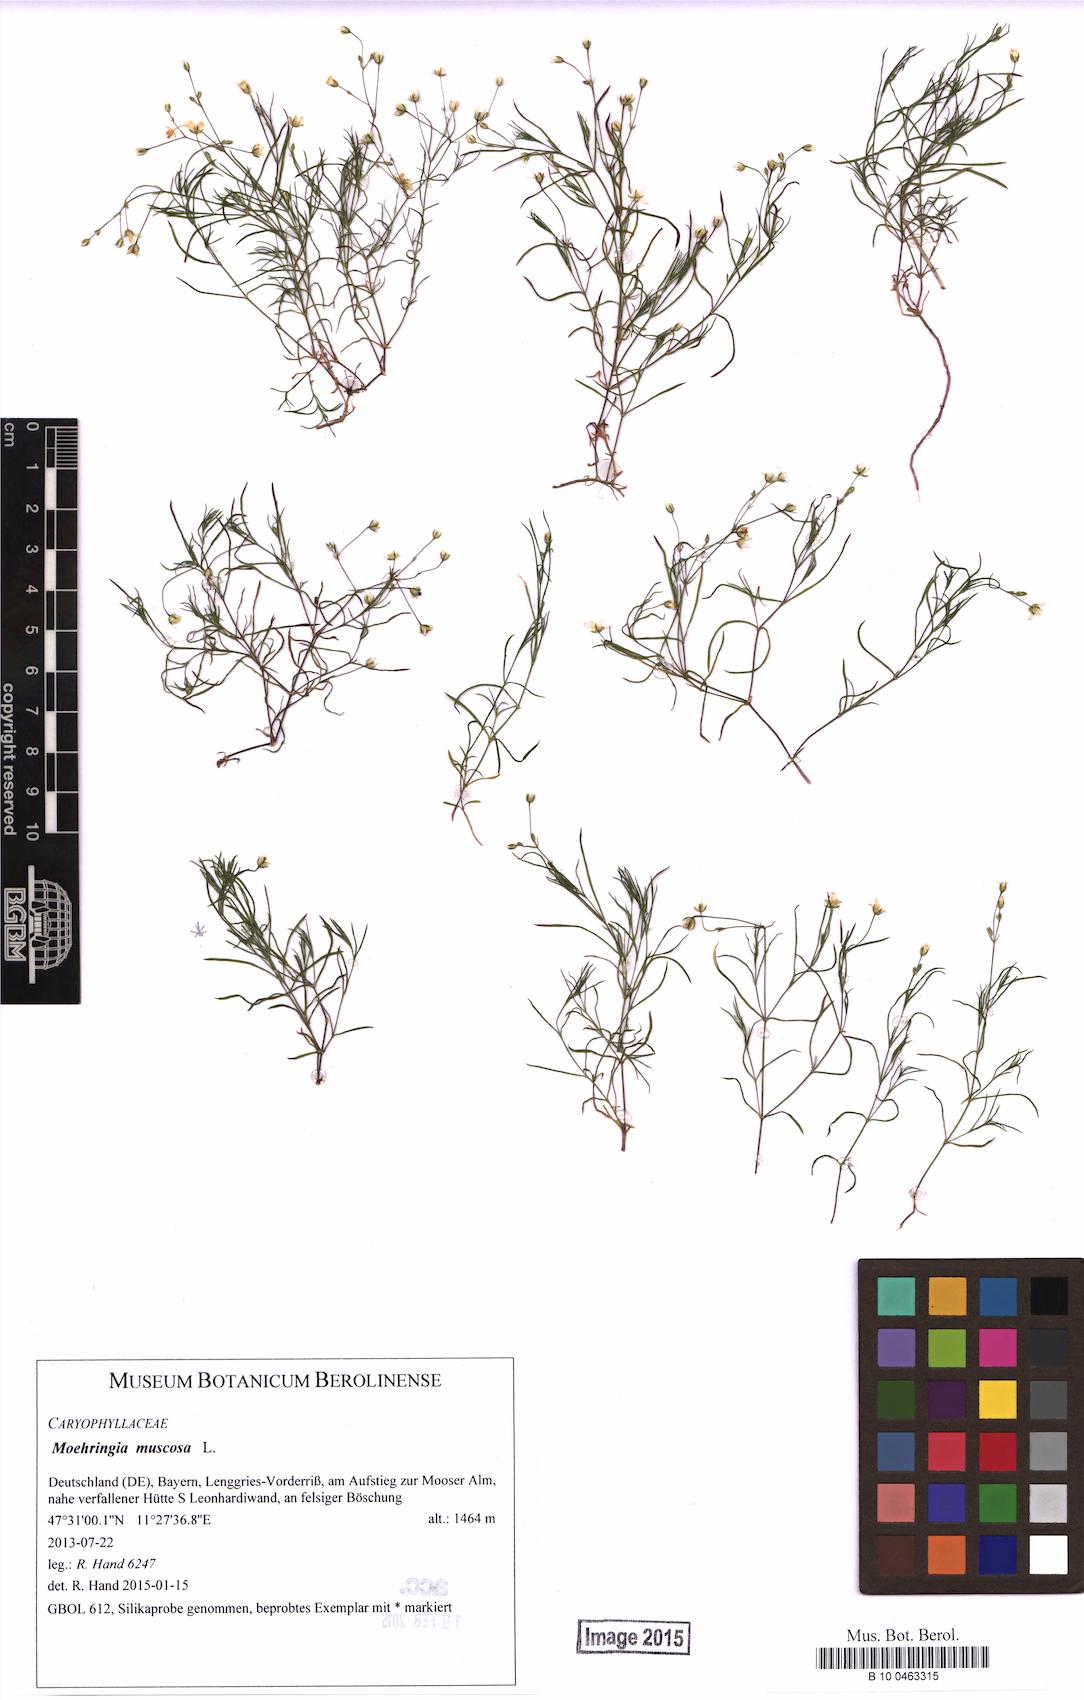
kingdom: Plantae
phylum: Tracheophyta
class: Magnoliopsida
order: Caryophyllales
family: Caryophyllaceae
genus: Moehringia
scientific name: Moehringia muscosa
